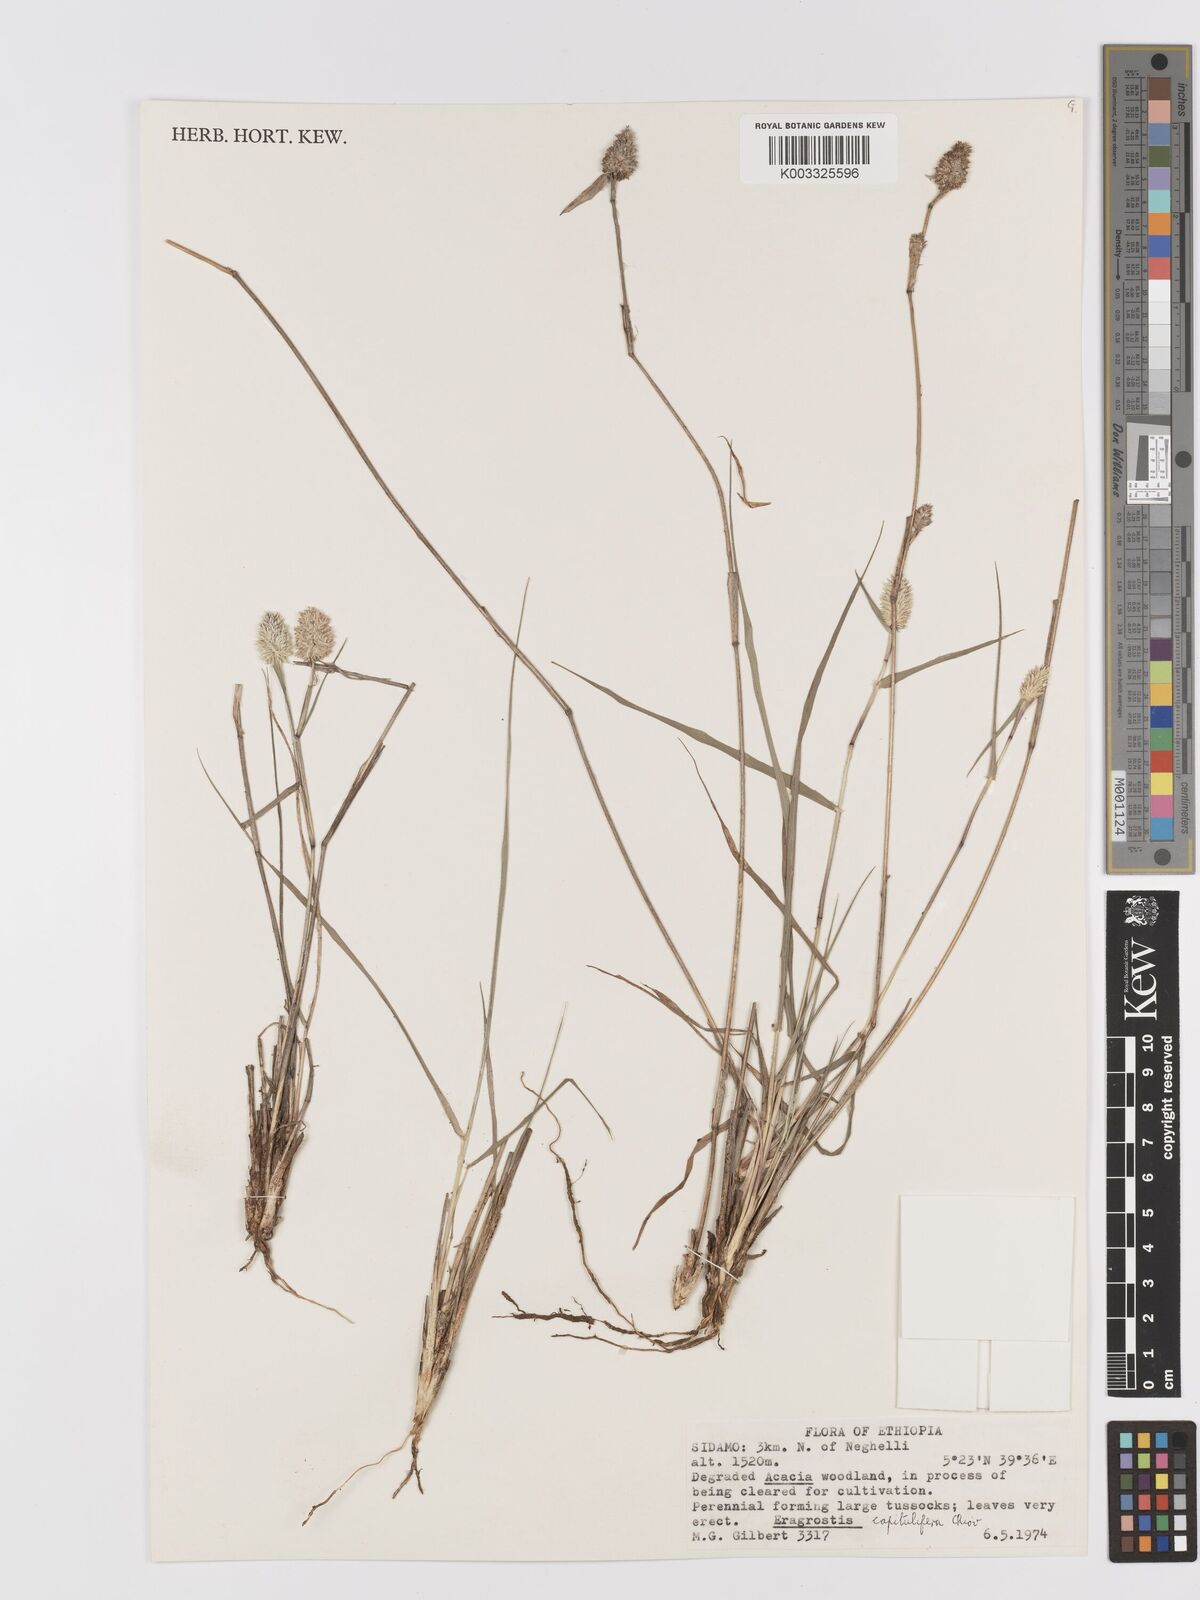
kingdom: Plantae
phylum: Tracheophyta
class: Liliopsida
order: Poales
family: Poaceae
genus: Eragrostis
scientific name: Eragrostis capitulifera
